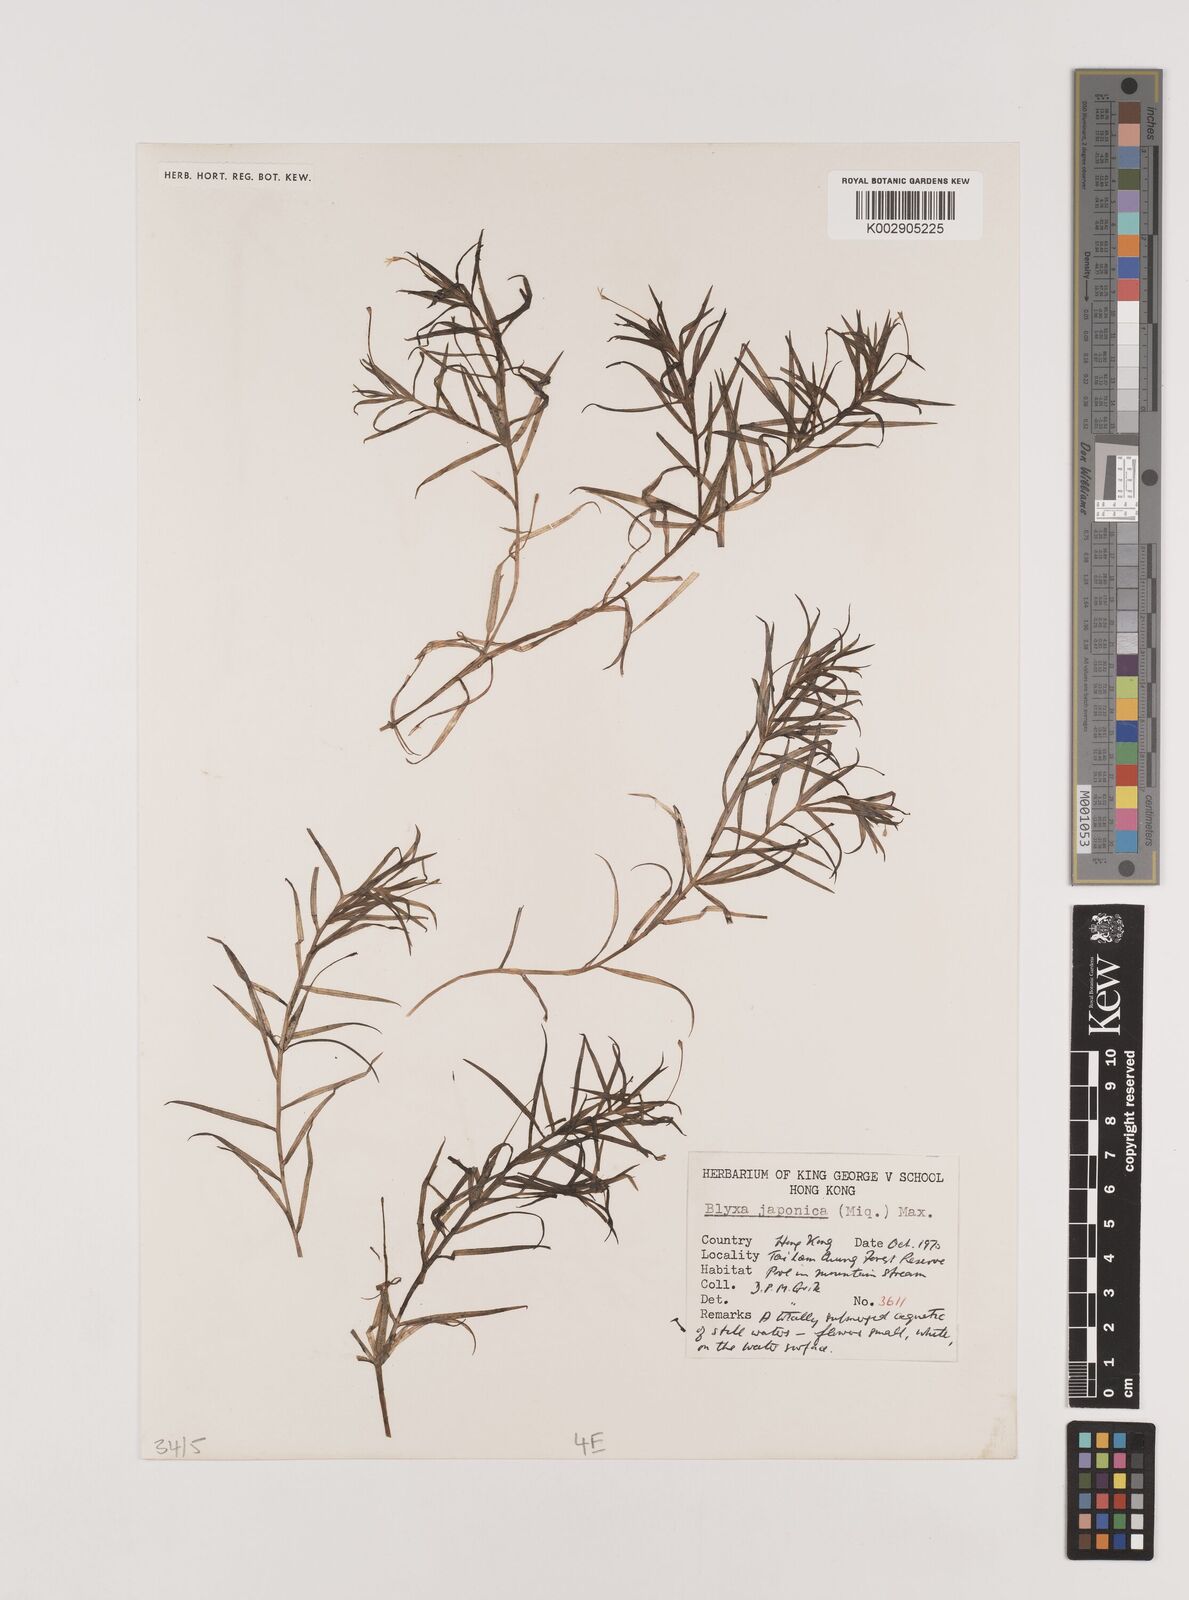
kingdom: Plantae
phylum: Tracheophyta
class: Liliopsida
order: Alismatales
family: Hydrocharitaceae
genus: Blyxa
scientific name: Blyxa japonica
